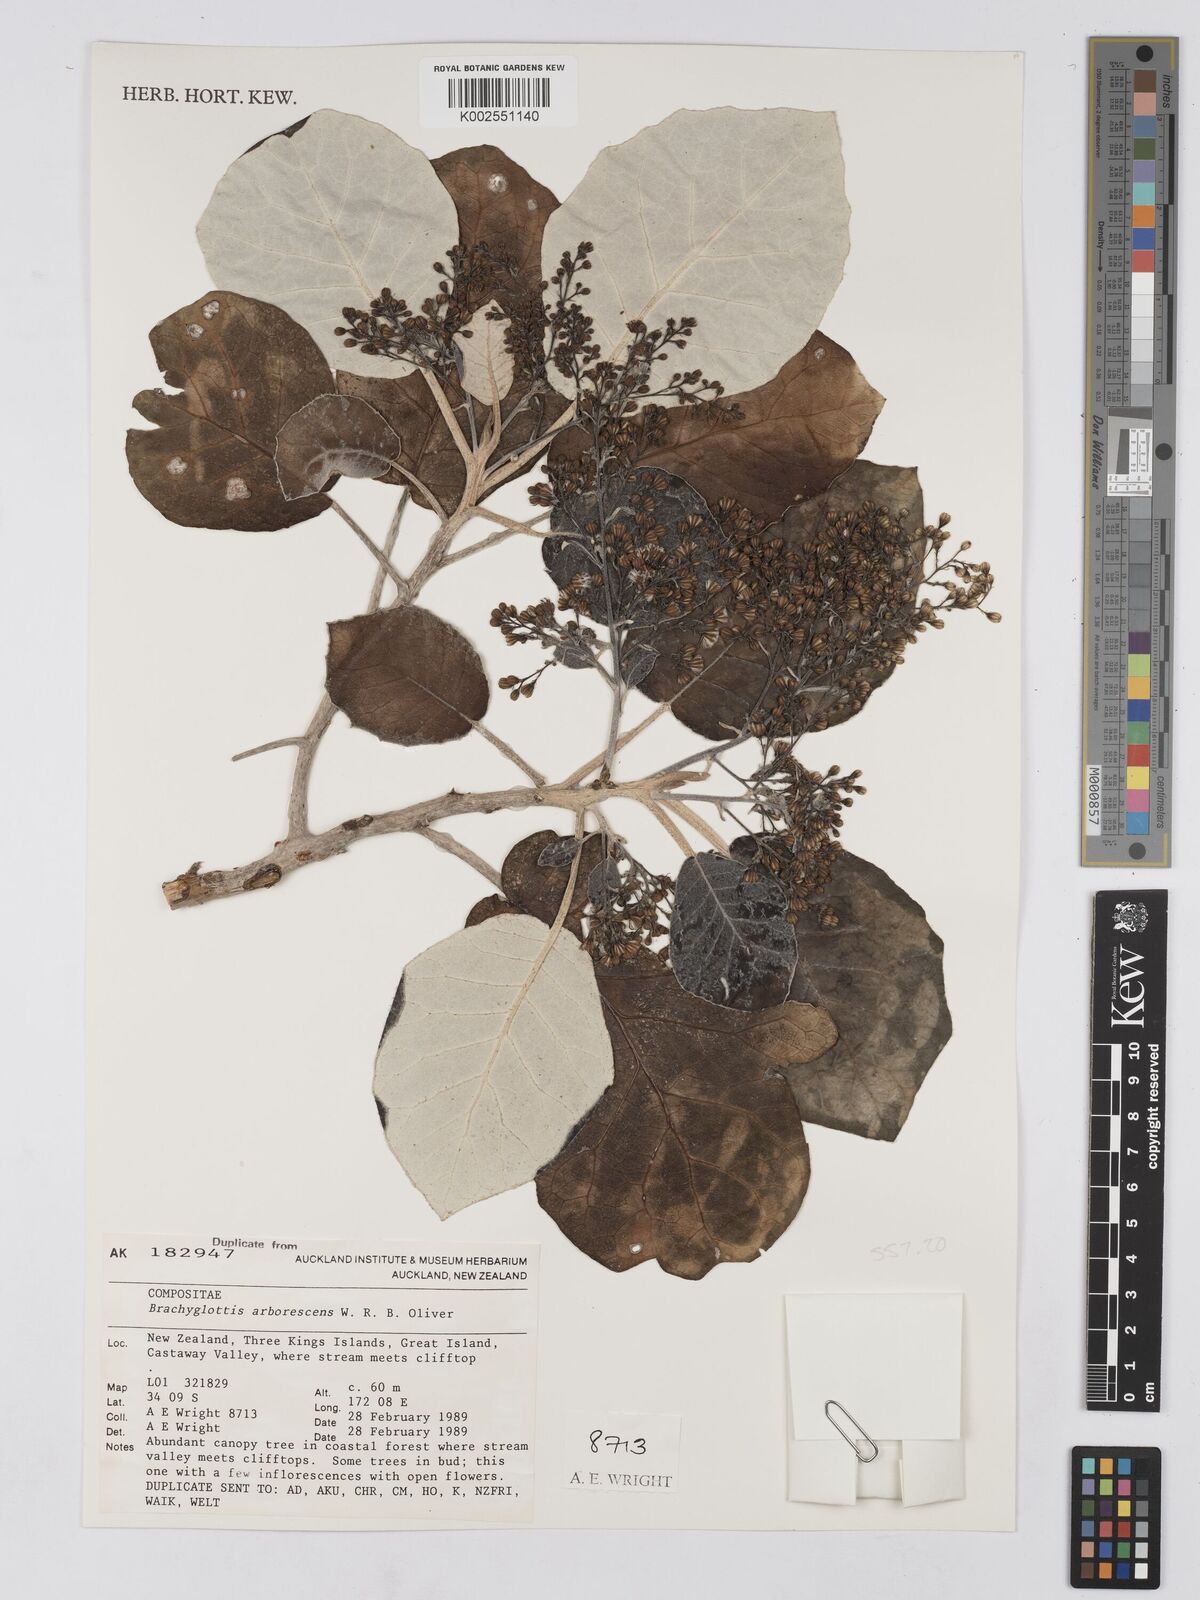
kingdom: Plantae
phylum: Tracheophyta
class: Magnoliopsida
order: Asterales
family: Asteraceae
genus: Brachyglottis
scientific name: Brachyglottis arborescens
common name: Three kings rangiora
